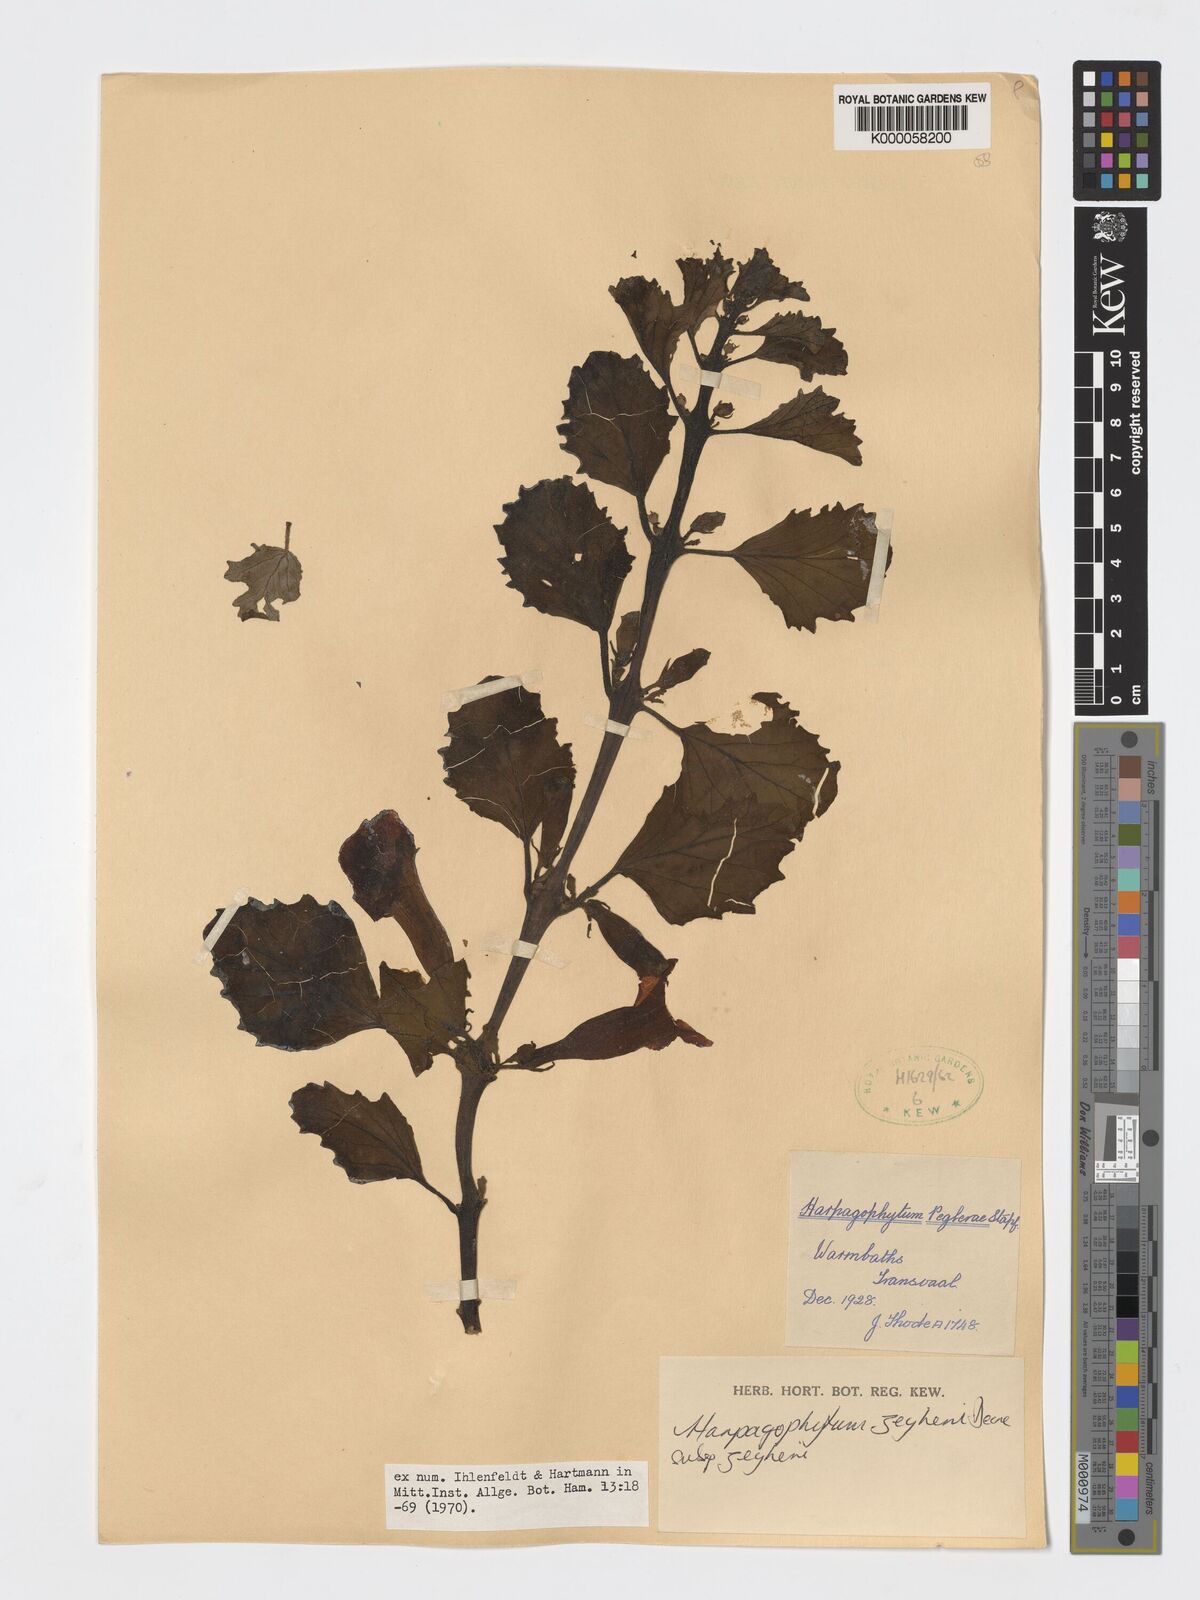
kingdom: Plantae
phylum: Tracheophyta
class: Magnoliopsida
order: Lamiales
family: Pedaliaceae
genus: Harpagophytum
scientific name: Harpagophytum zeyheri
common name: Grappleplant
